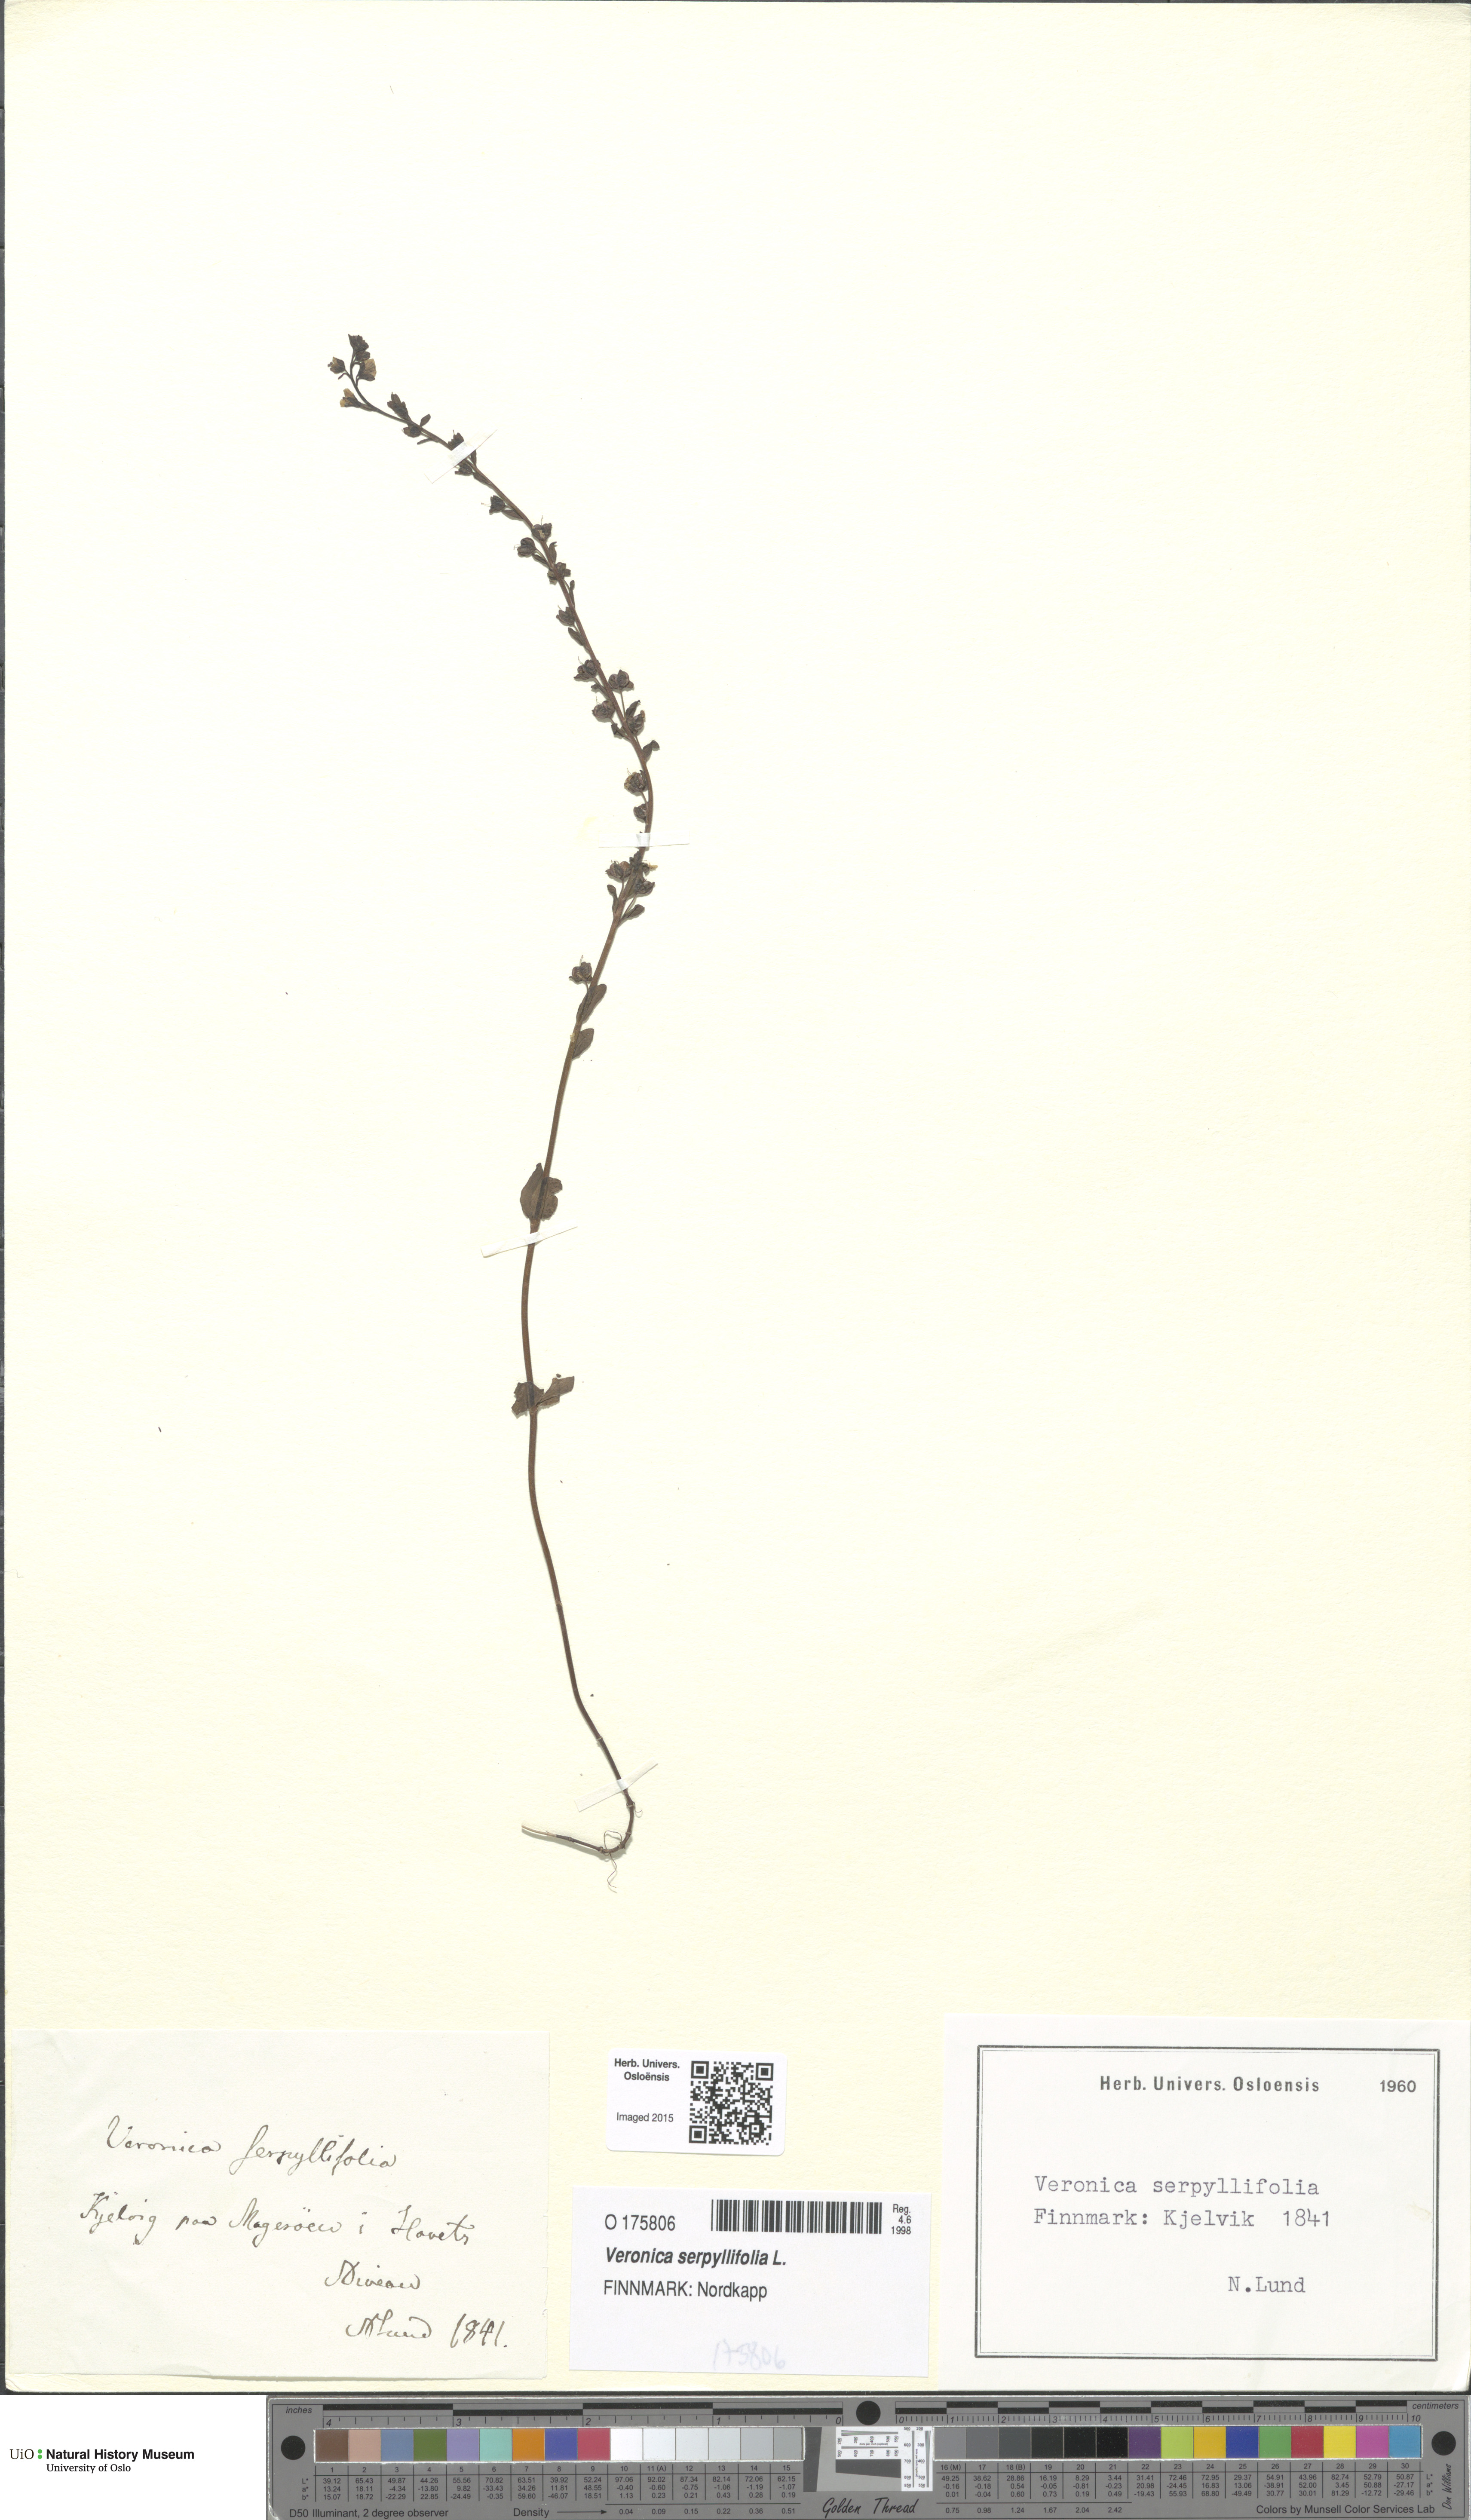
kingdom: Plantae
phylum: Tracheophyta
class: Magnoliopsida
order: Lamiales
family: Plantaginaceae
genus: Veronica
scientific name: Veronica serpyllifolia
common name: Thyme-leaved speedwell
